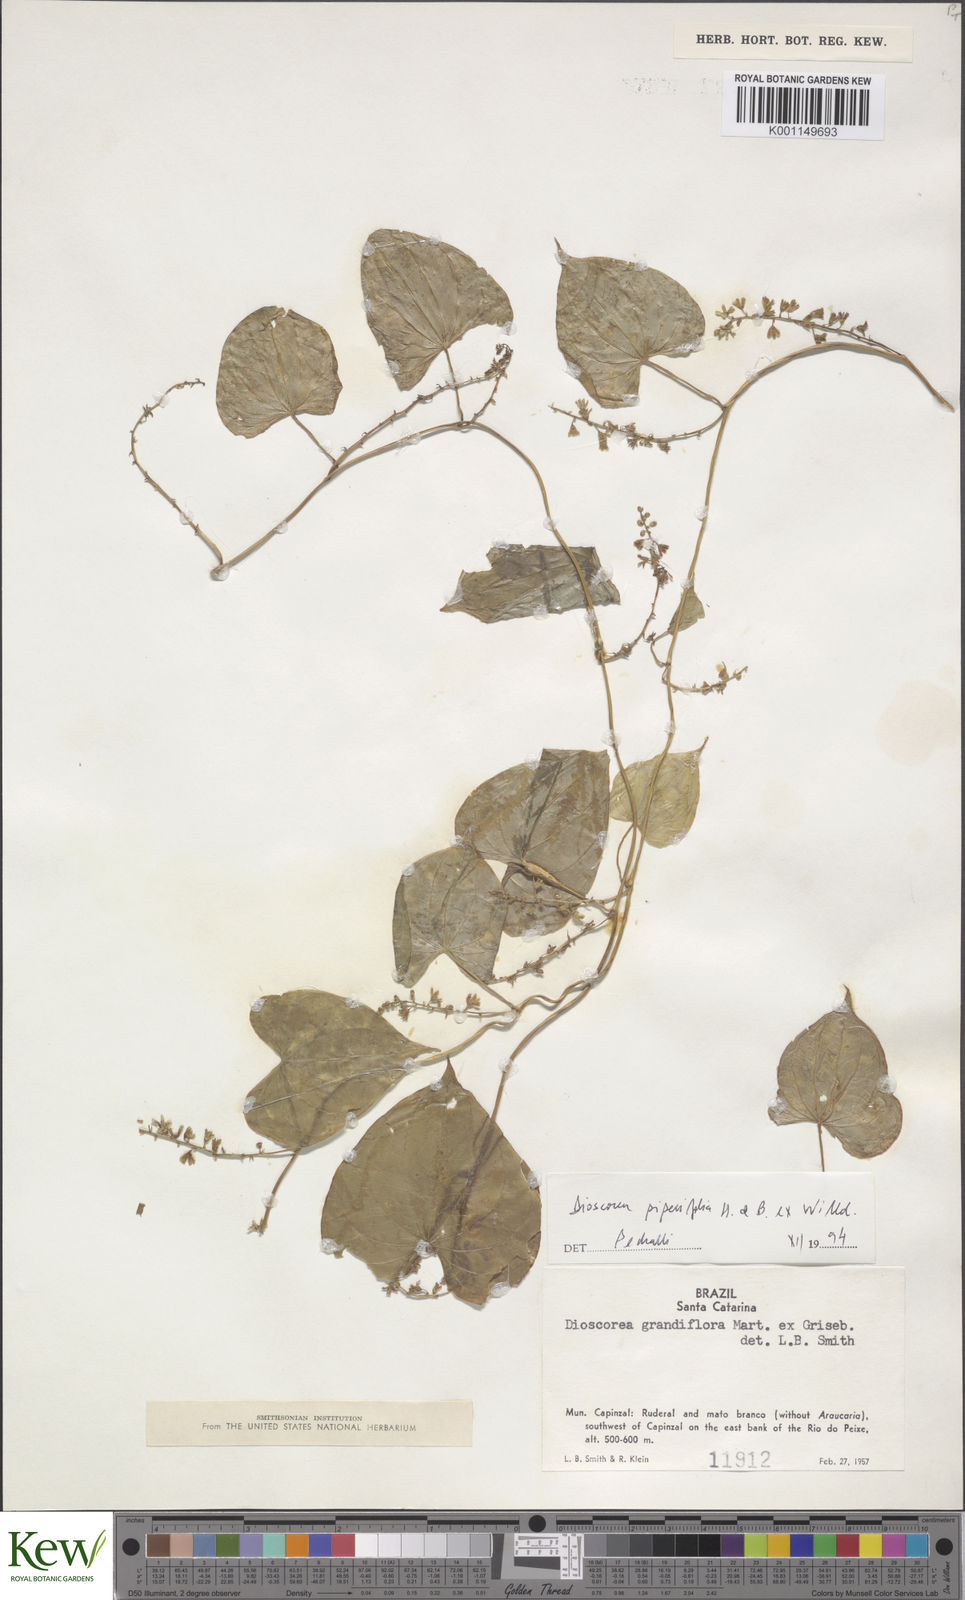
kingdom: Plantae
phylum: Tracheophyta
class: Liliopsida
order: Dioscoreales
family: Dioscoreaceae
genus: Dioscorea
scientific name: Dioscorea grandiflora
